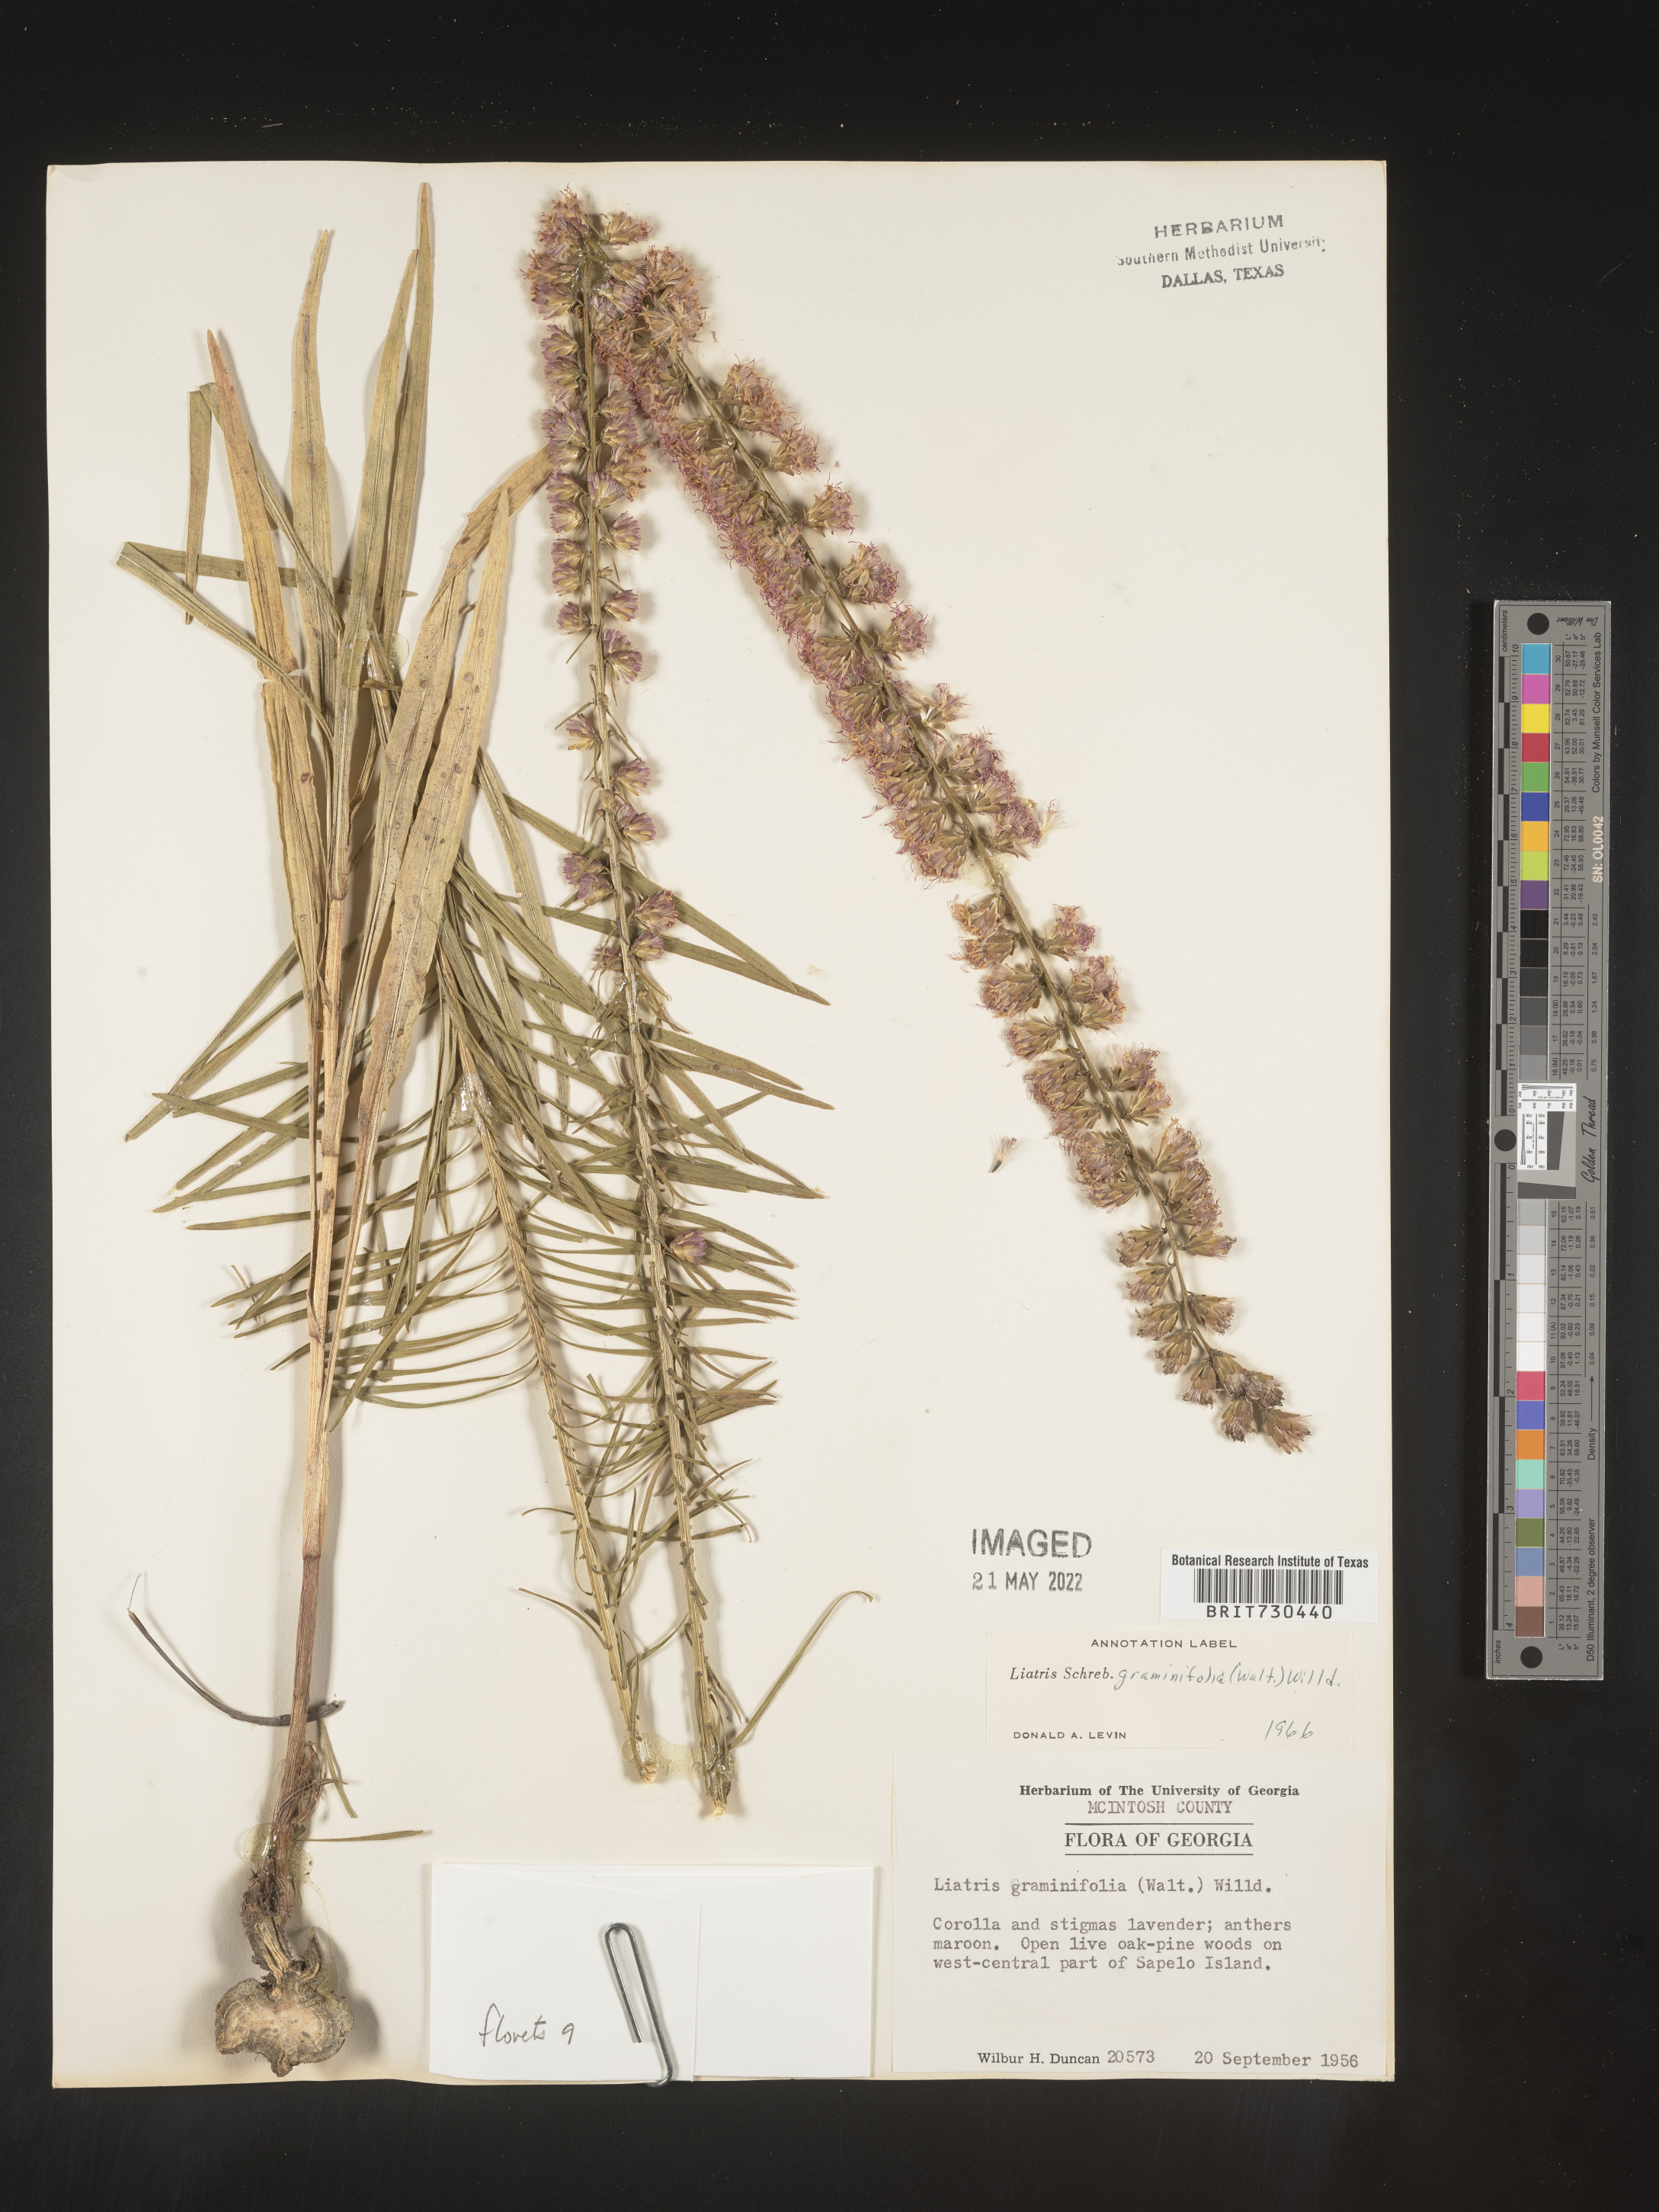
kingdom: Plantae
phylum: Tracheophyta
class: Magnoliopsida
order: Asterales
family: Asteraceae
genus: Liatris
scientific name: Liatris elegantula
